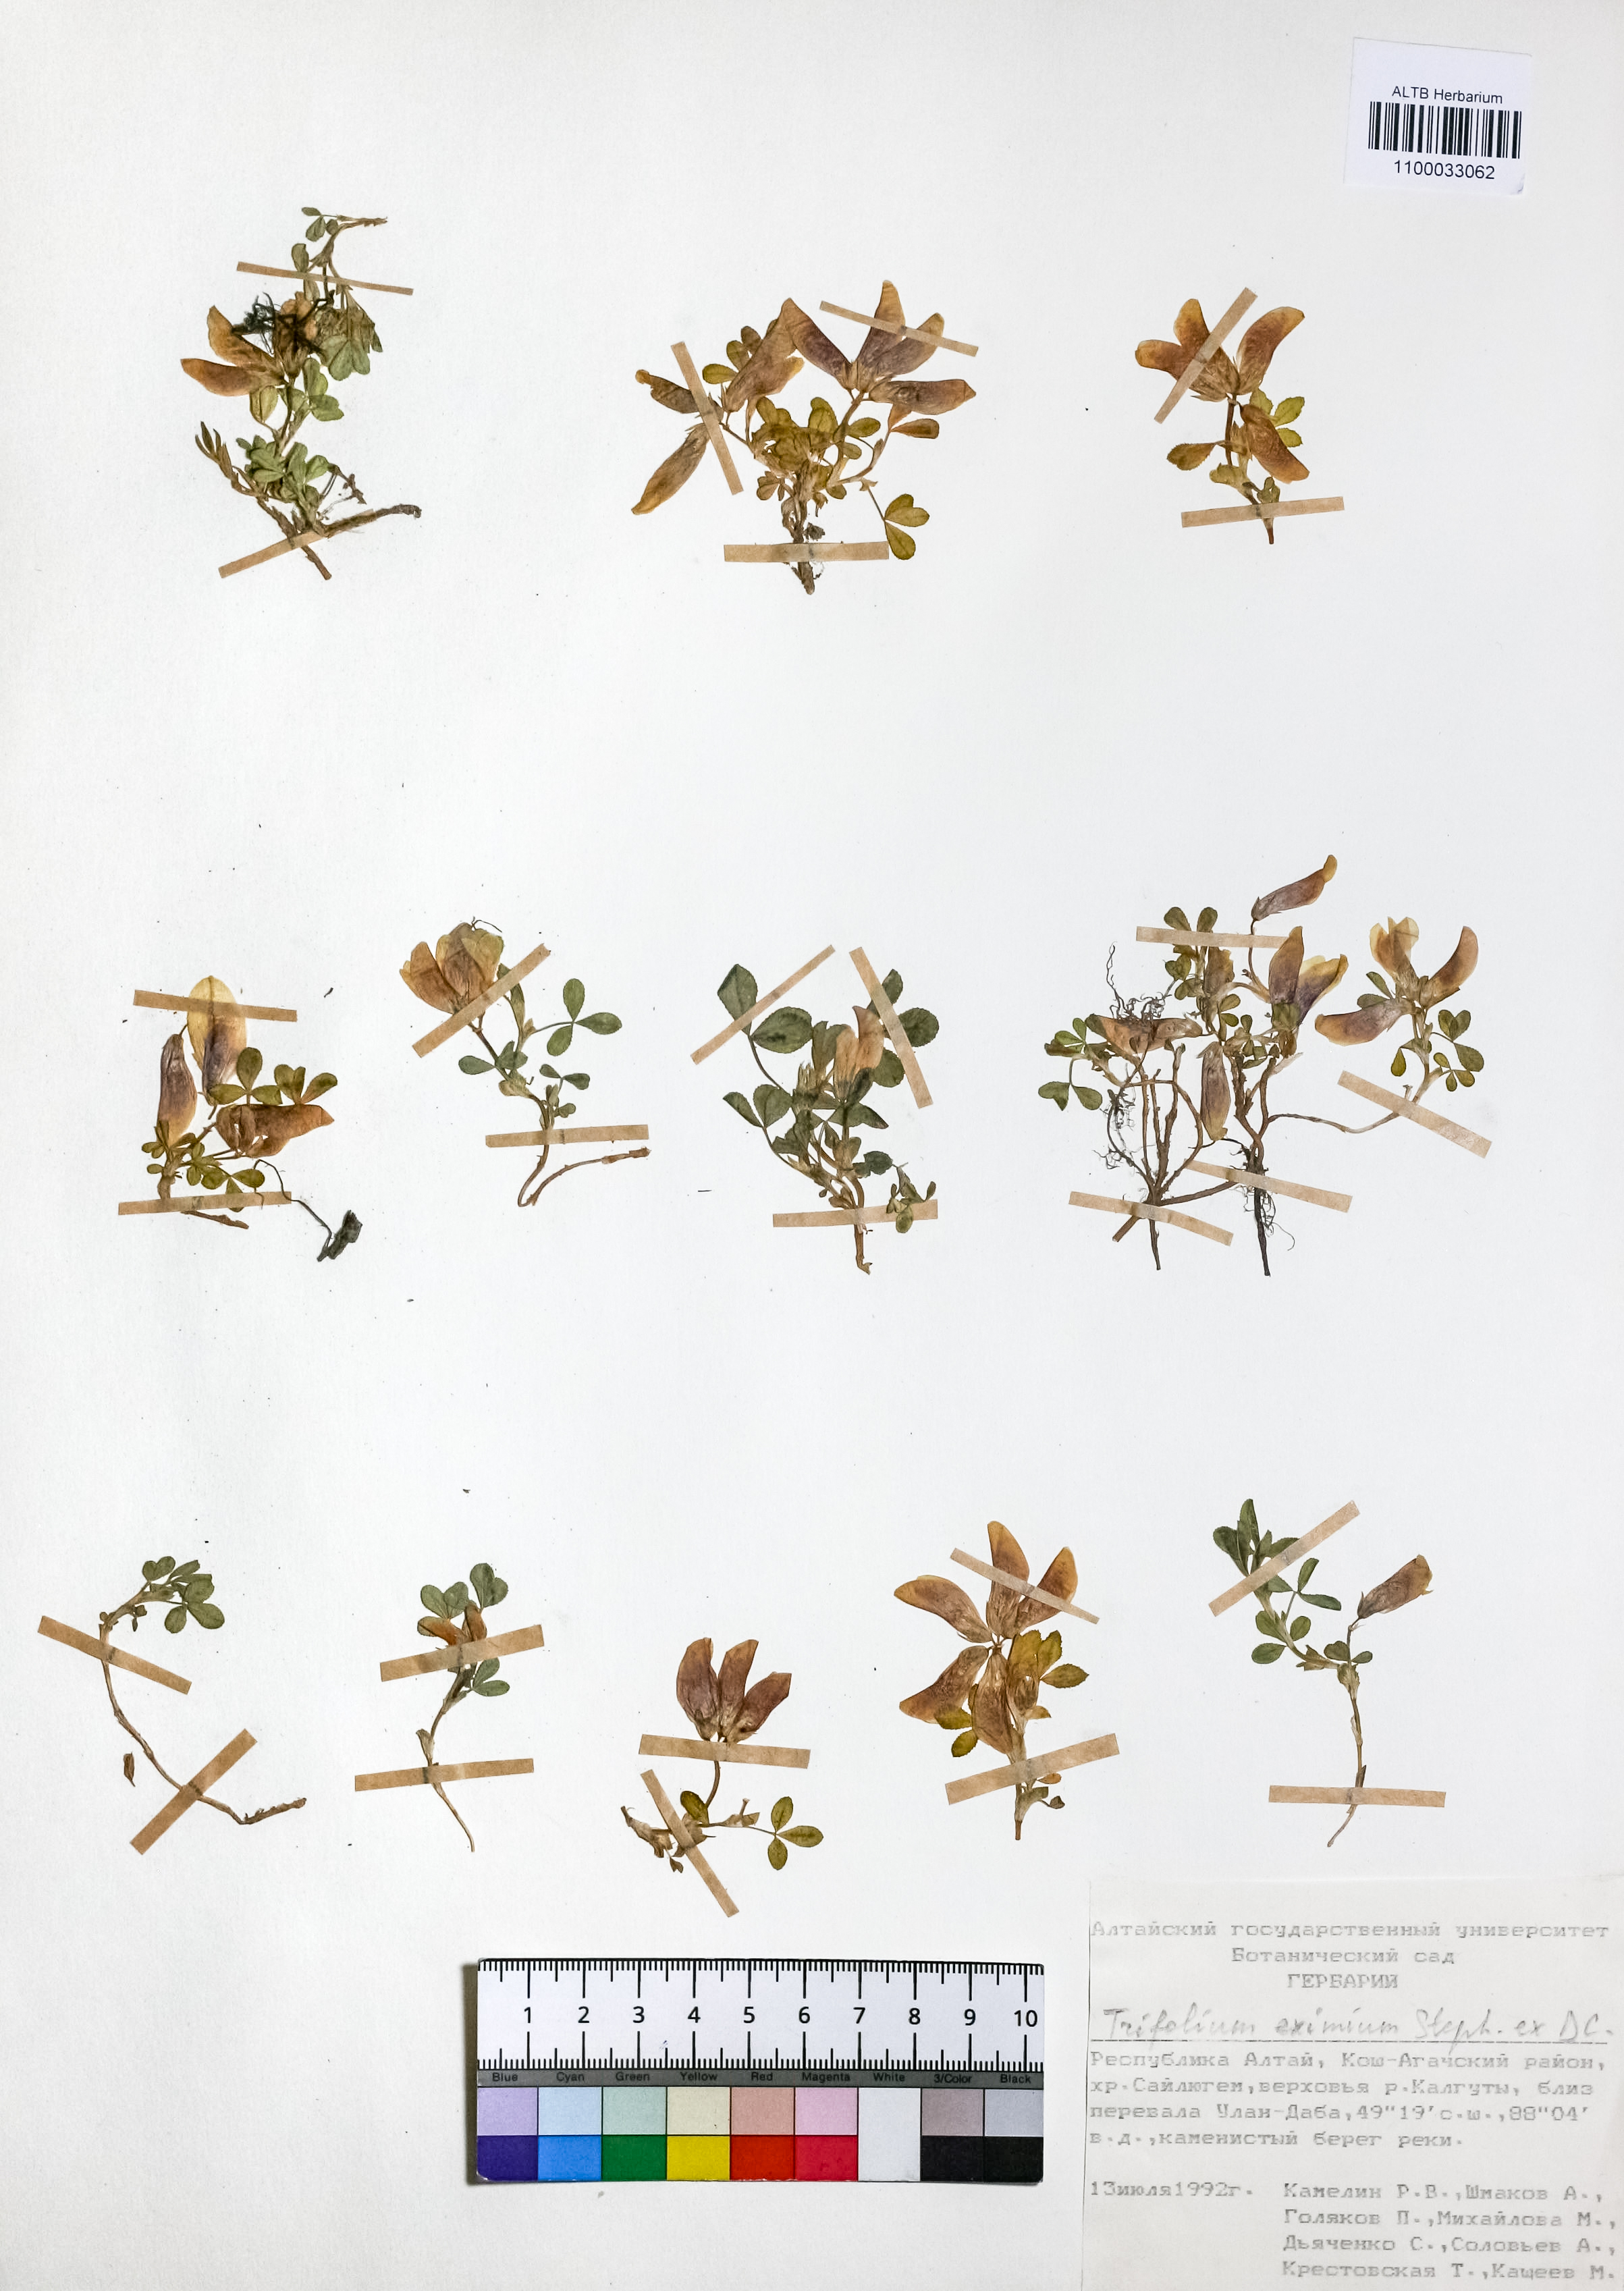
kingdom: Plantae
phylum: Tracheophyta
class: Magnoliopsida
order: Fabales
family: Fabaceae
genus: Trifolium
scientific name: Trifolium eximium
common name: Excellent clover
